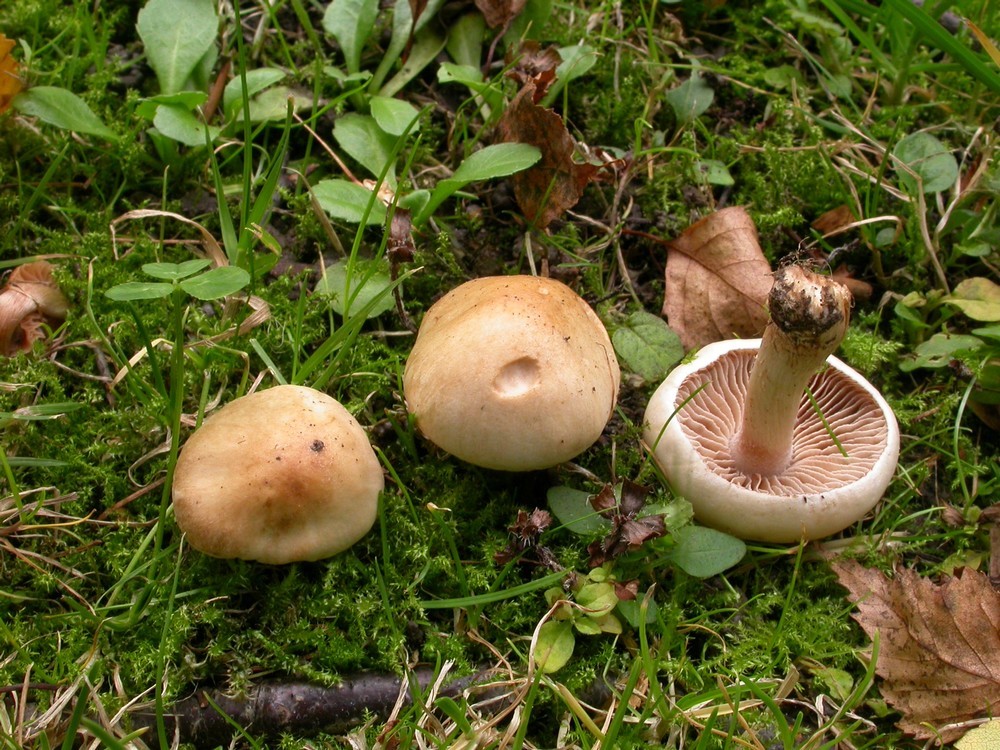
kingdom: Fungi
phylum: Basidiomycota
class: Agaricomycetes
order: Agaricales
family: Hymenogastraceae
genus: Hebeloma
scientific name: Hebeloma sacchariolens
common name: sødtduftende tåreblad
